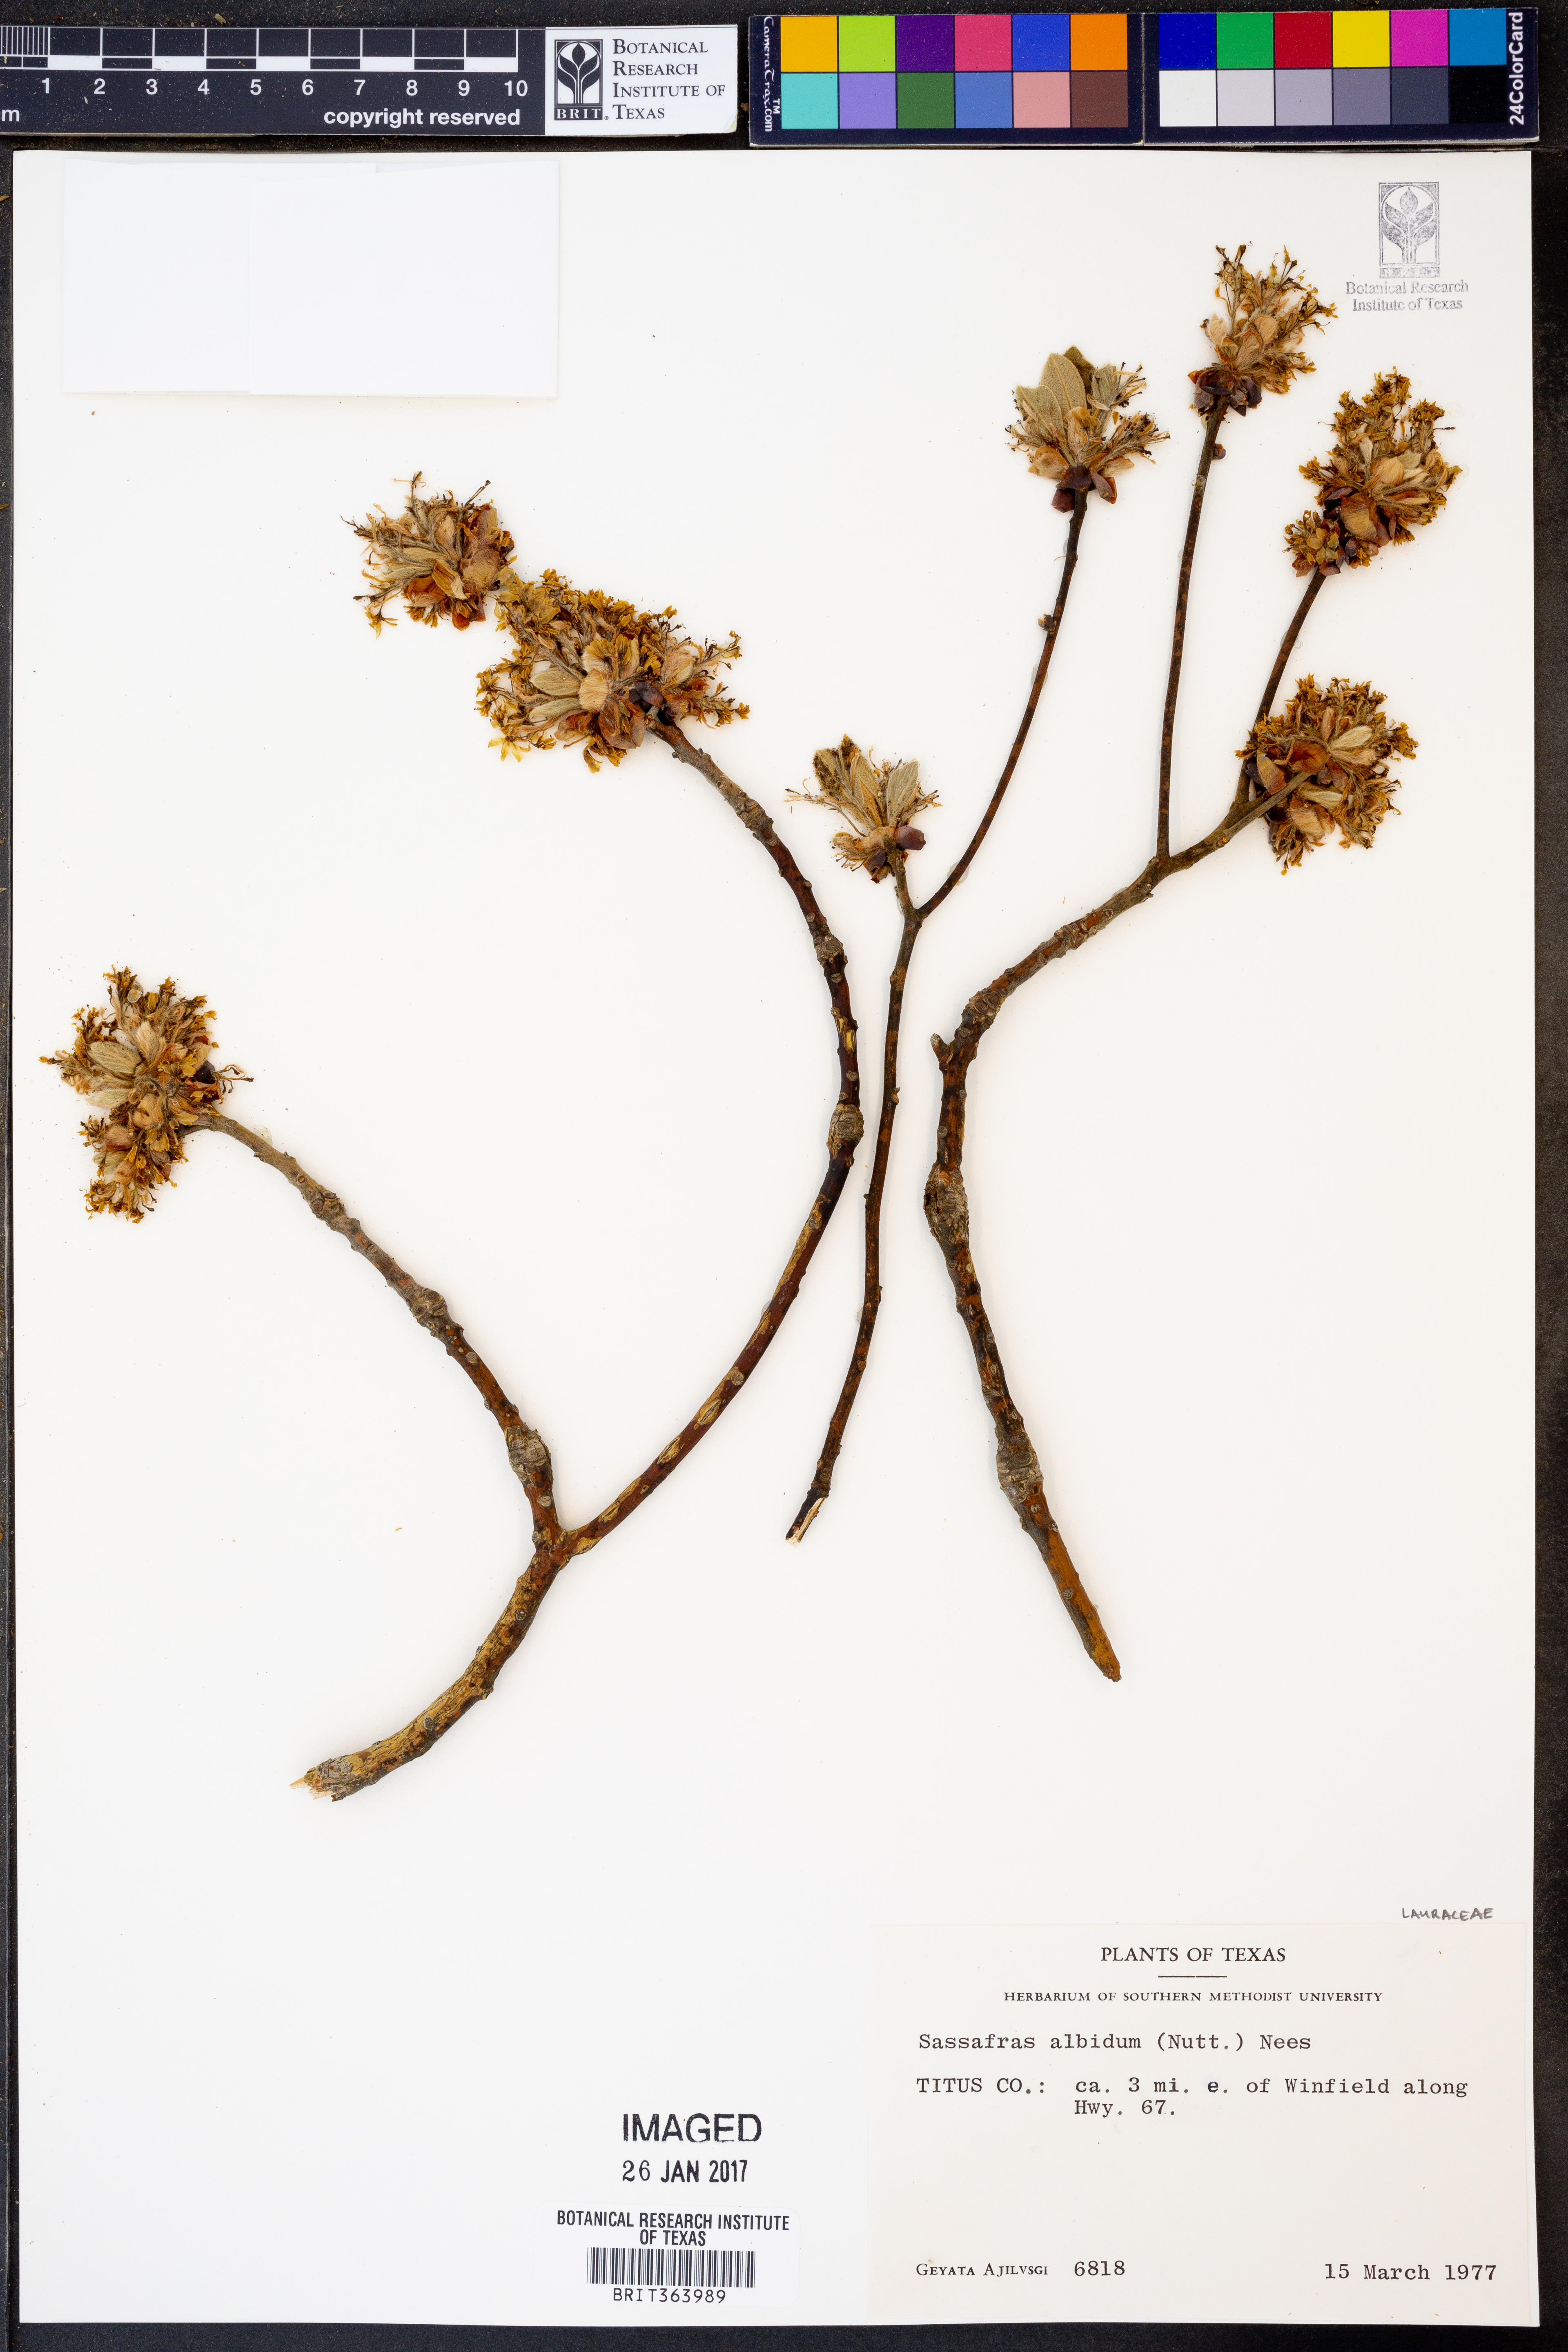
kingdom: Plantae
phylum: Tracheophyta
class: Magnoliopsida
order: Laurales
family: Lauraceae
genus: Sassafras
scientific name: Sassafras albidum
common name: Sassafras
